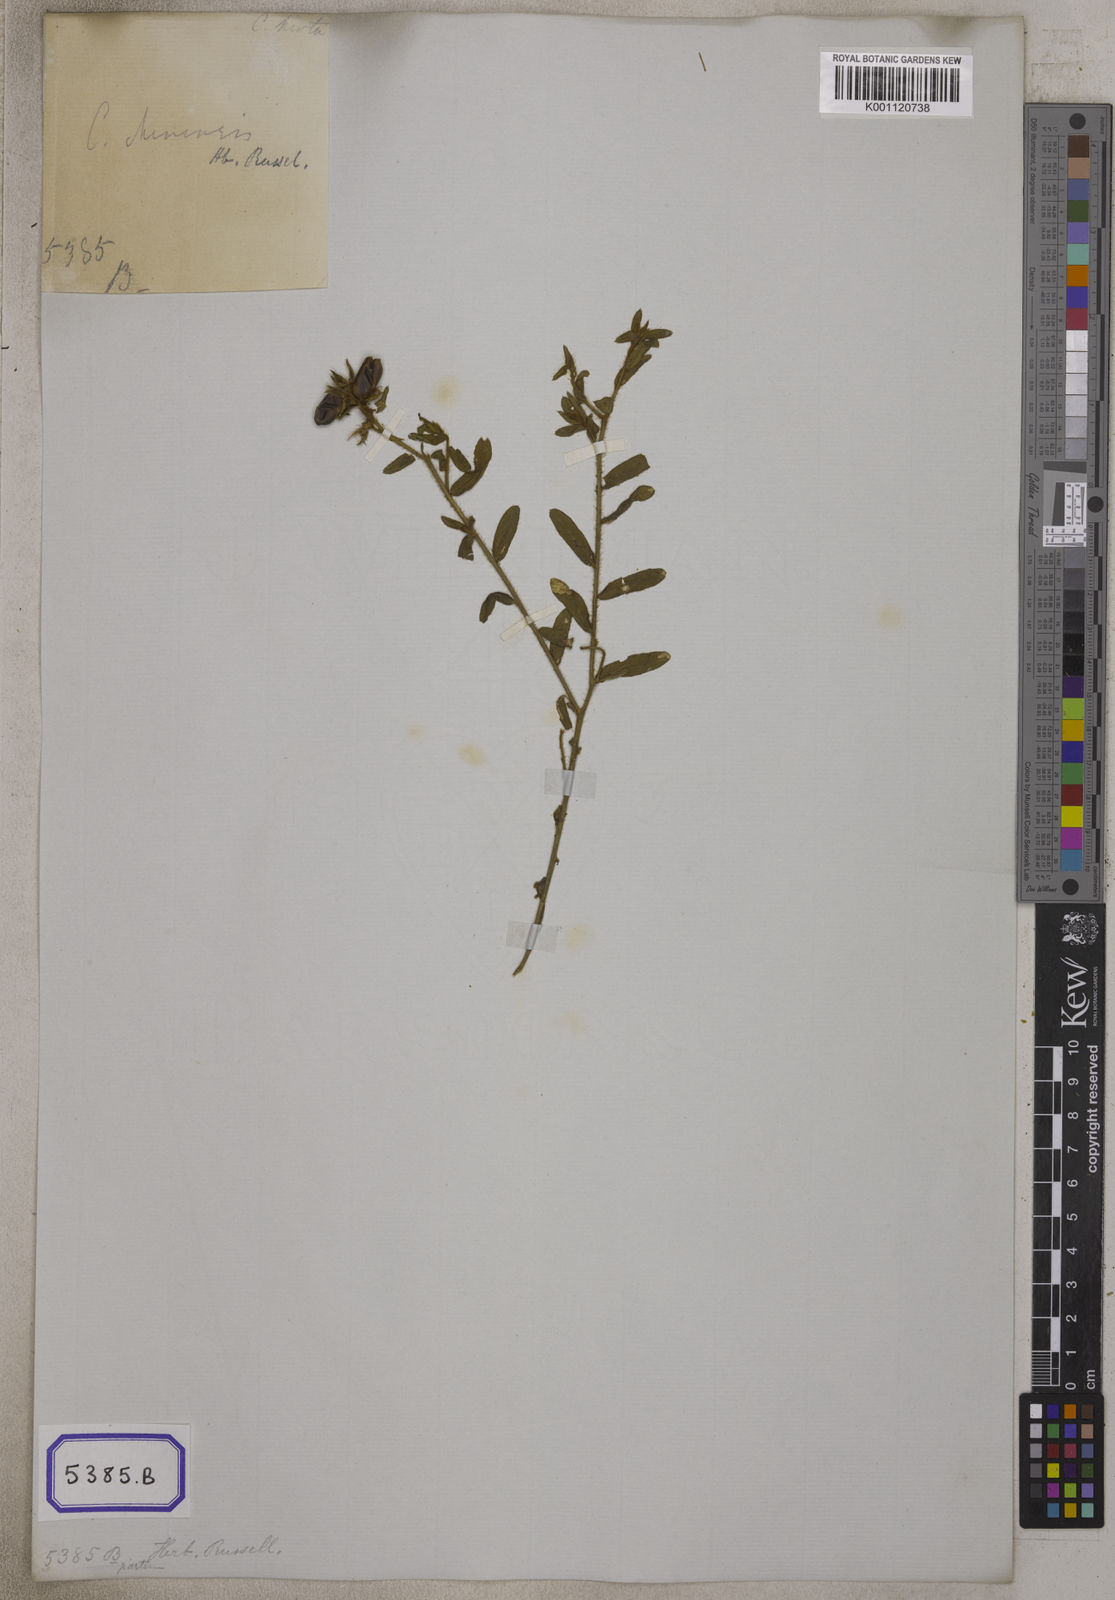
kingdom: Plantae
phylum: Tracheophyta
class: Magnoliopsida
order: Fabales
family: Fabaceae
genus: Crotalaria
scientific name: Crotalaria chinensis
